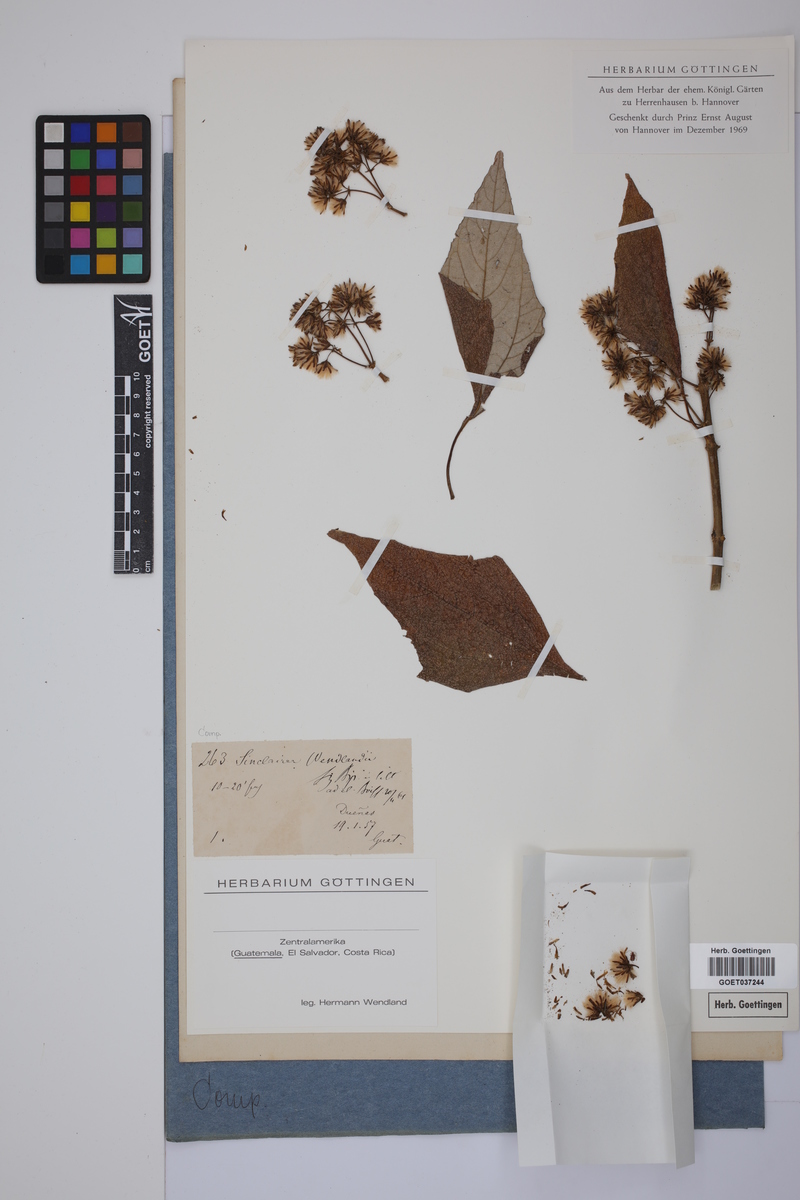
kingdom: Plantae
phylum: Tracheophyta
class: Magnoliopsida
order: Asterales
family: Asteraceae
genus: Sinclairia
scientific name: Sinclairia
